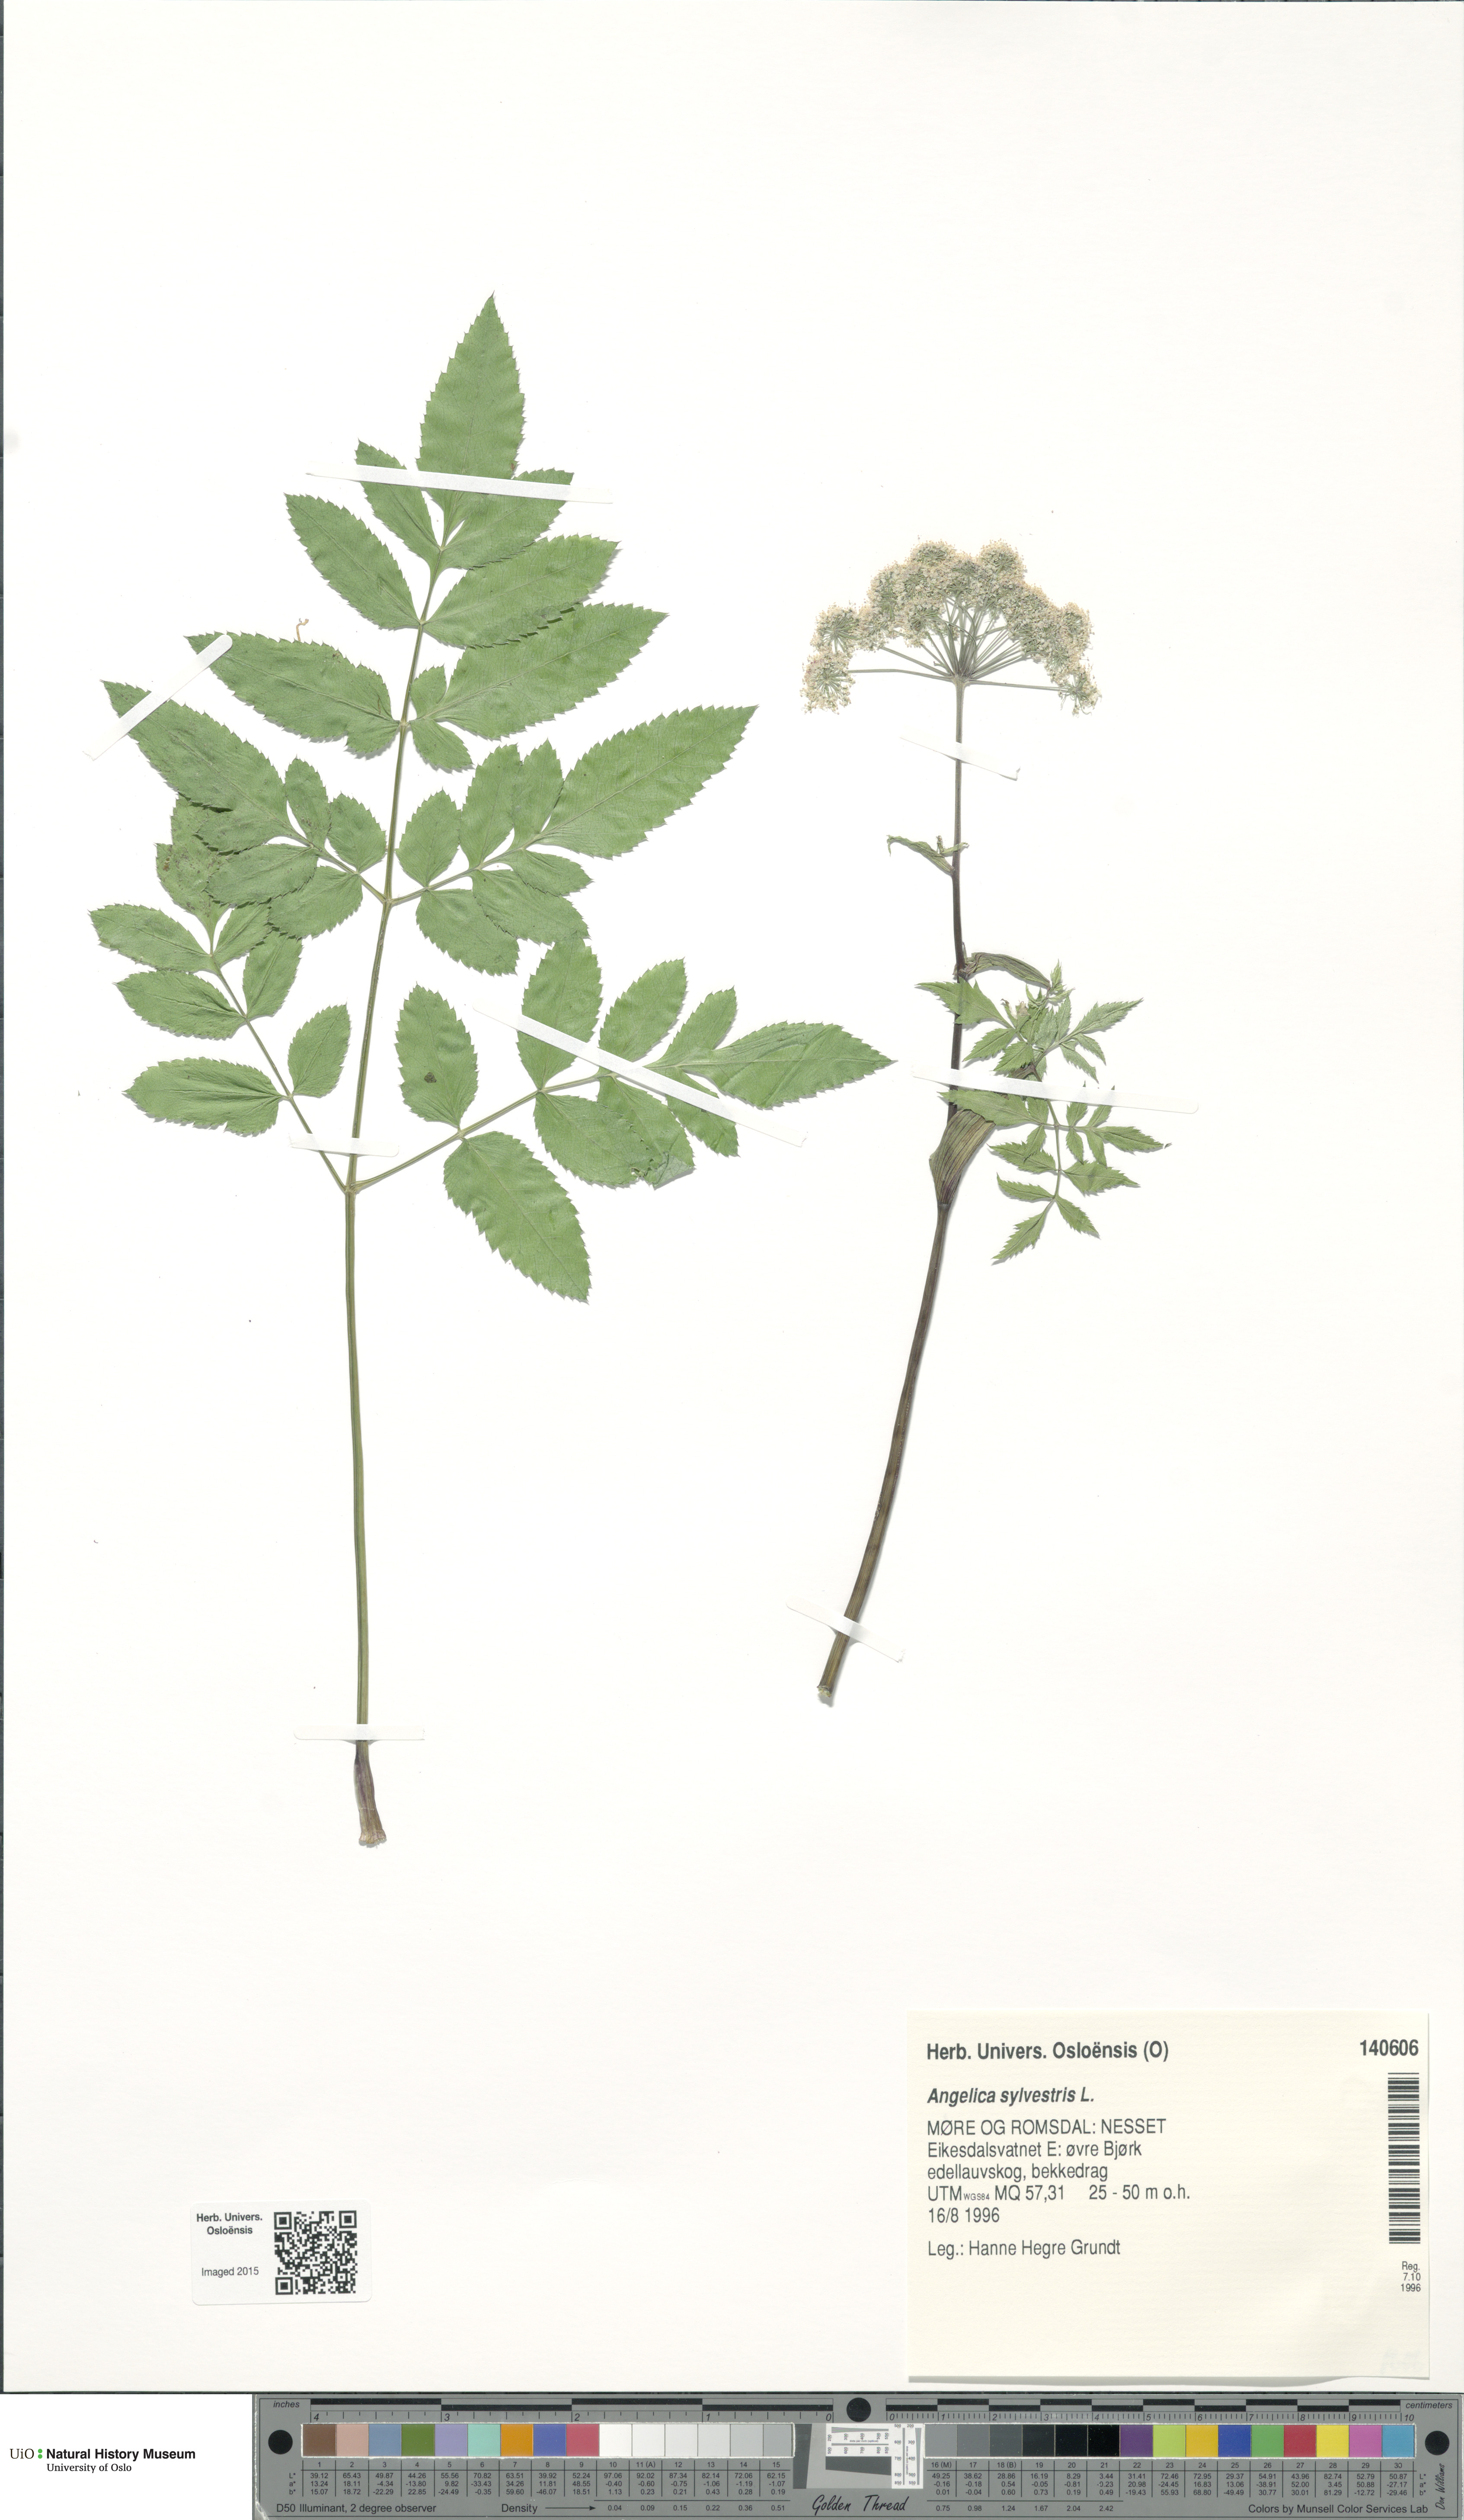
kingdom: Plantae
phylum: Tracheophyta
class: Magnoliopsida
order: Apiales
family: Apiaceae
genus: Angelica
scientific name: Angelica sylvestris
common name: Wild angelica
